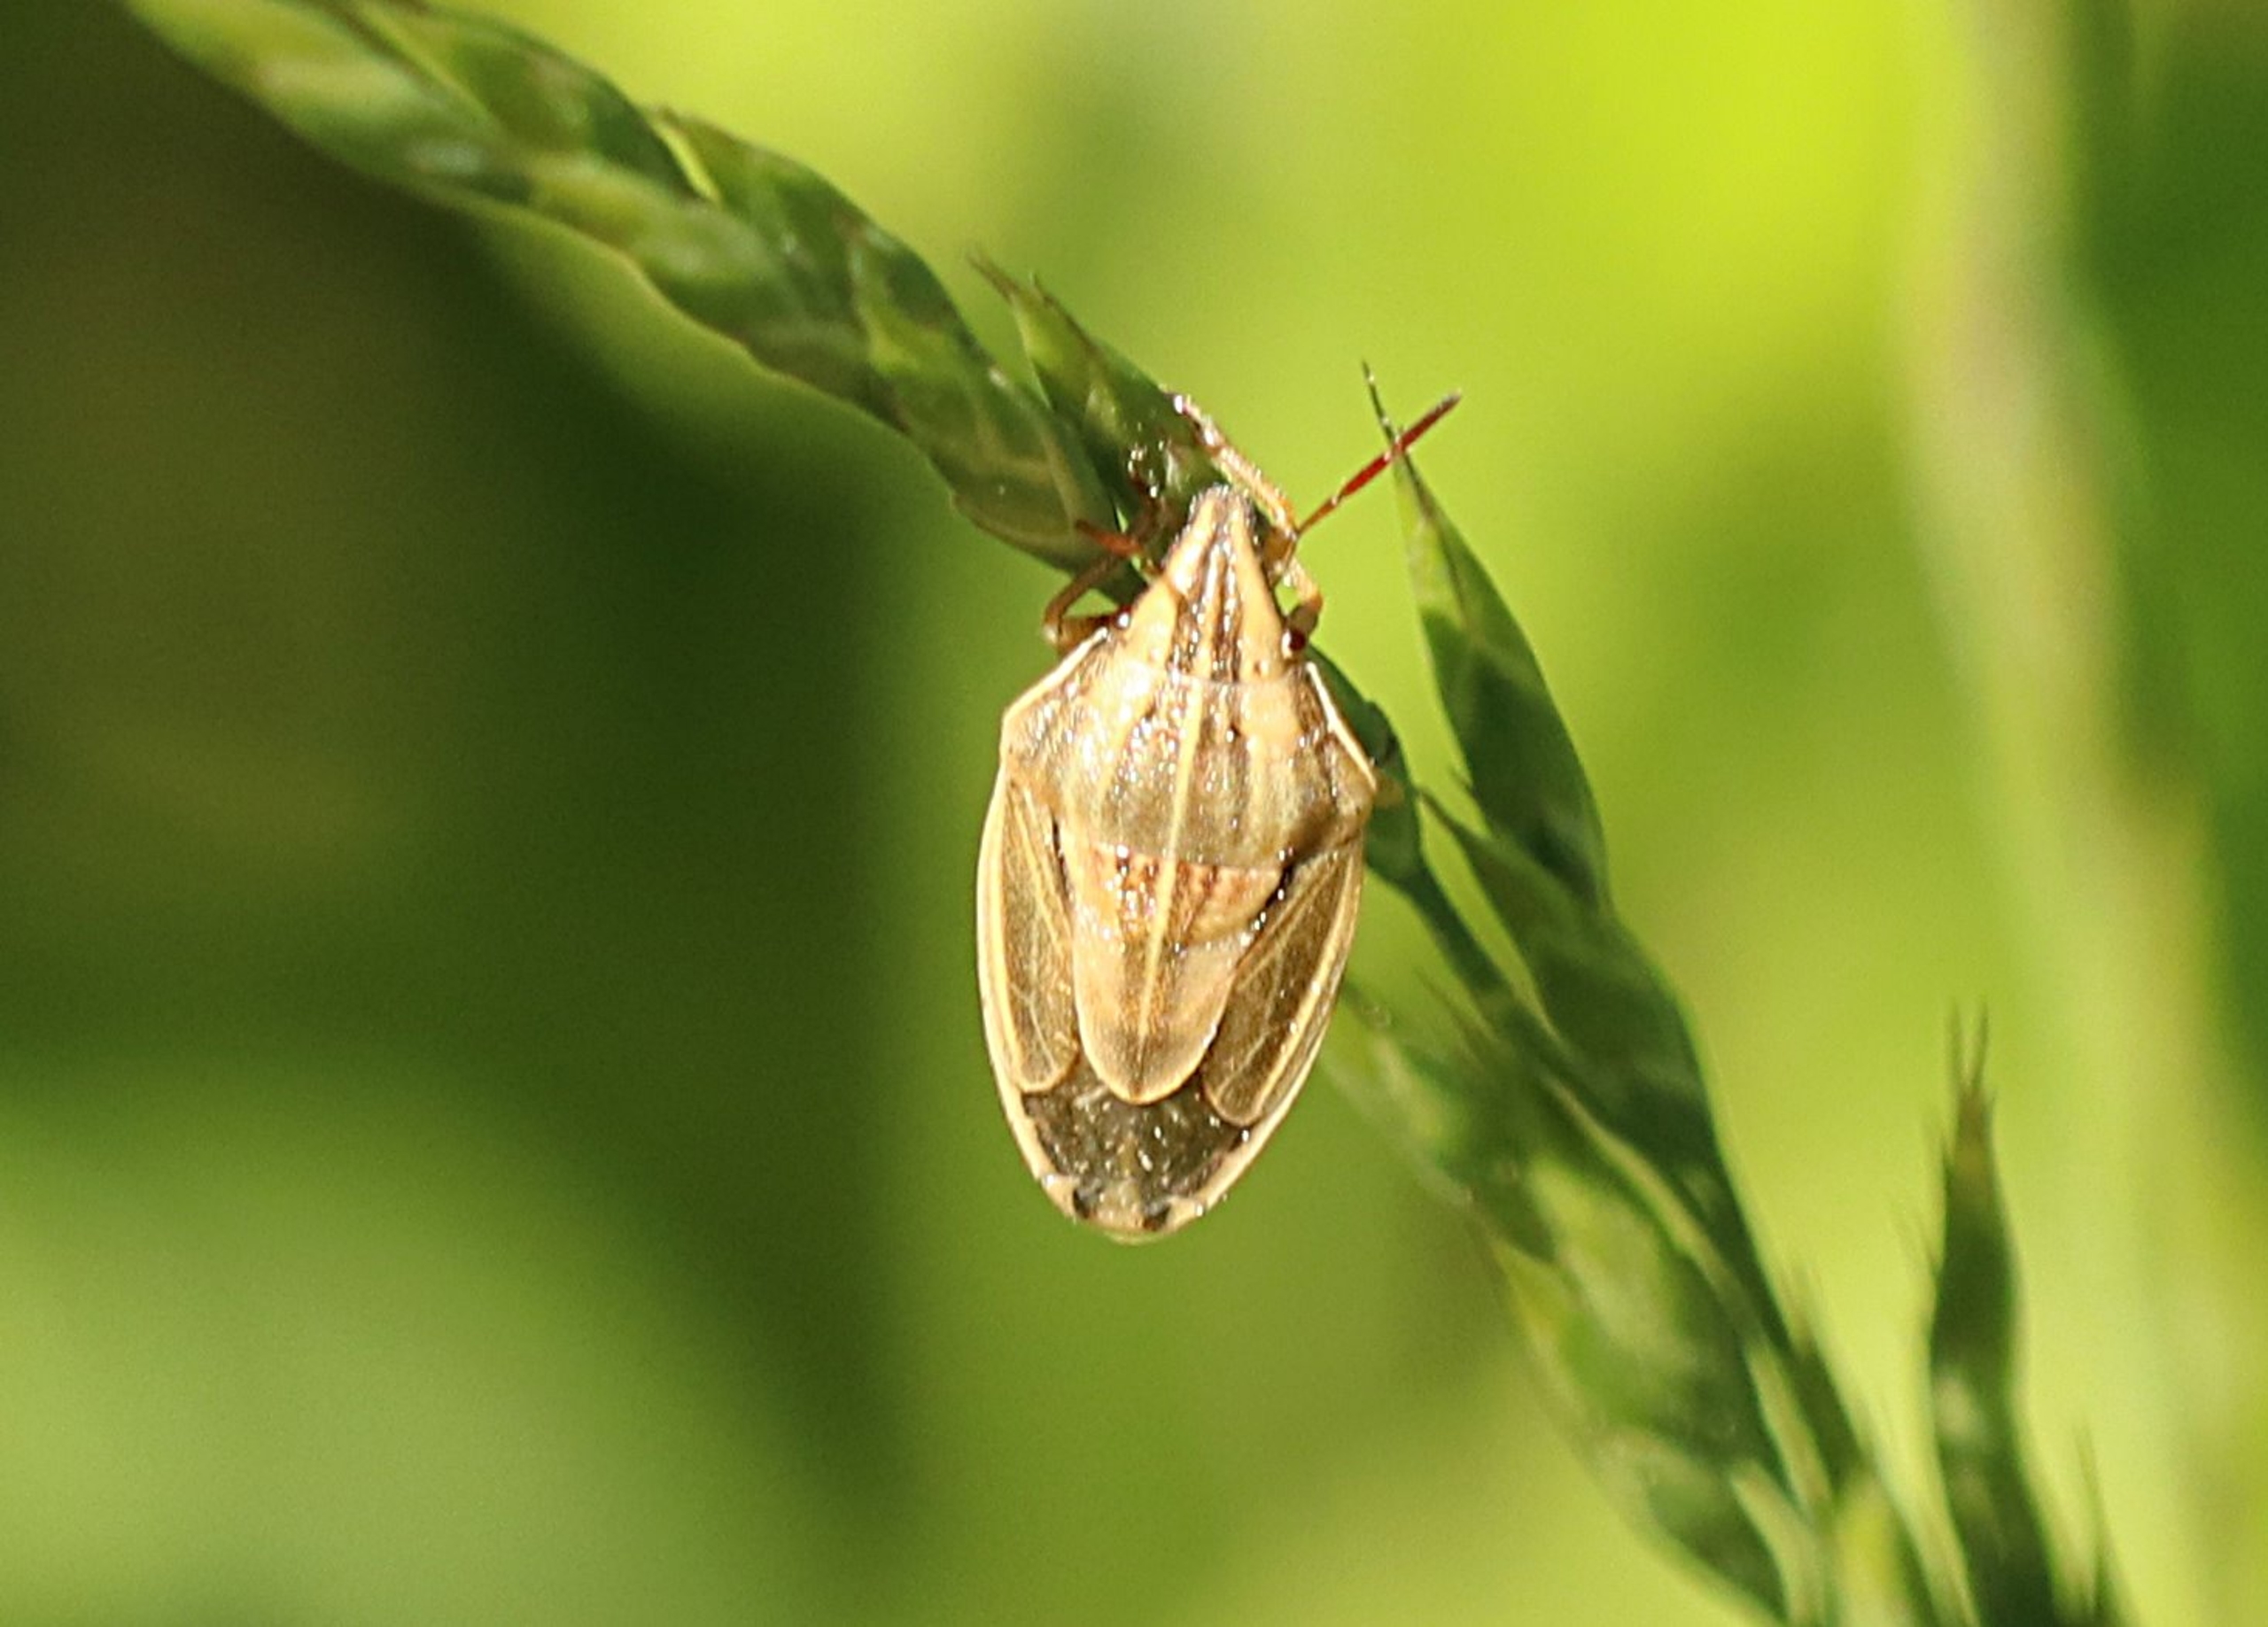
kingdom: Animalia
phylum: Arthropoda
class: Insecta
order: Hemiptera
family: Pentatomidae
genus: Aelia
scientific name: Aelia acuminata
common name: Almindelig bispetæge
